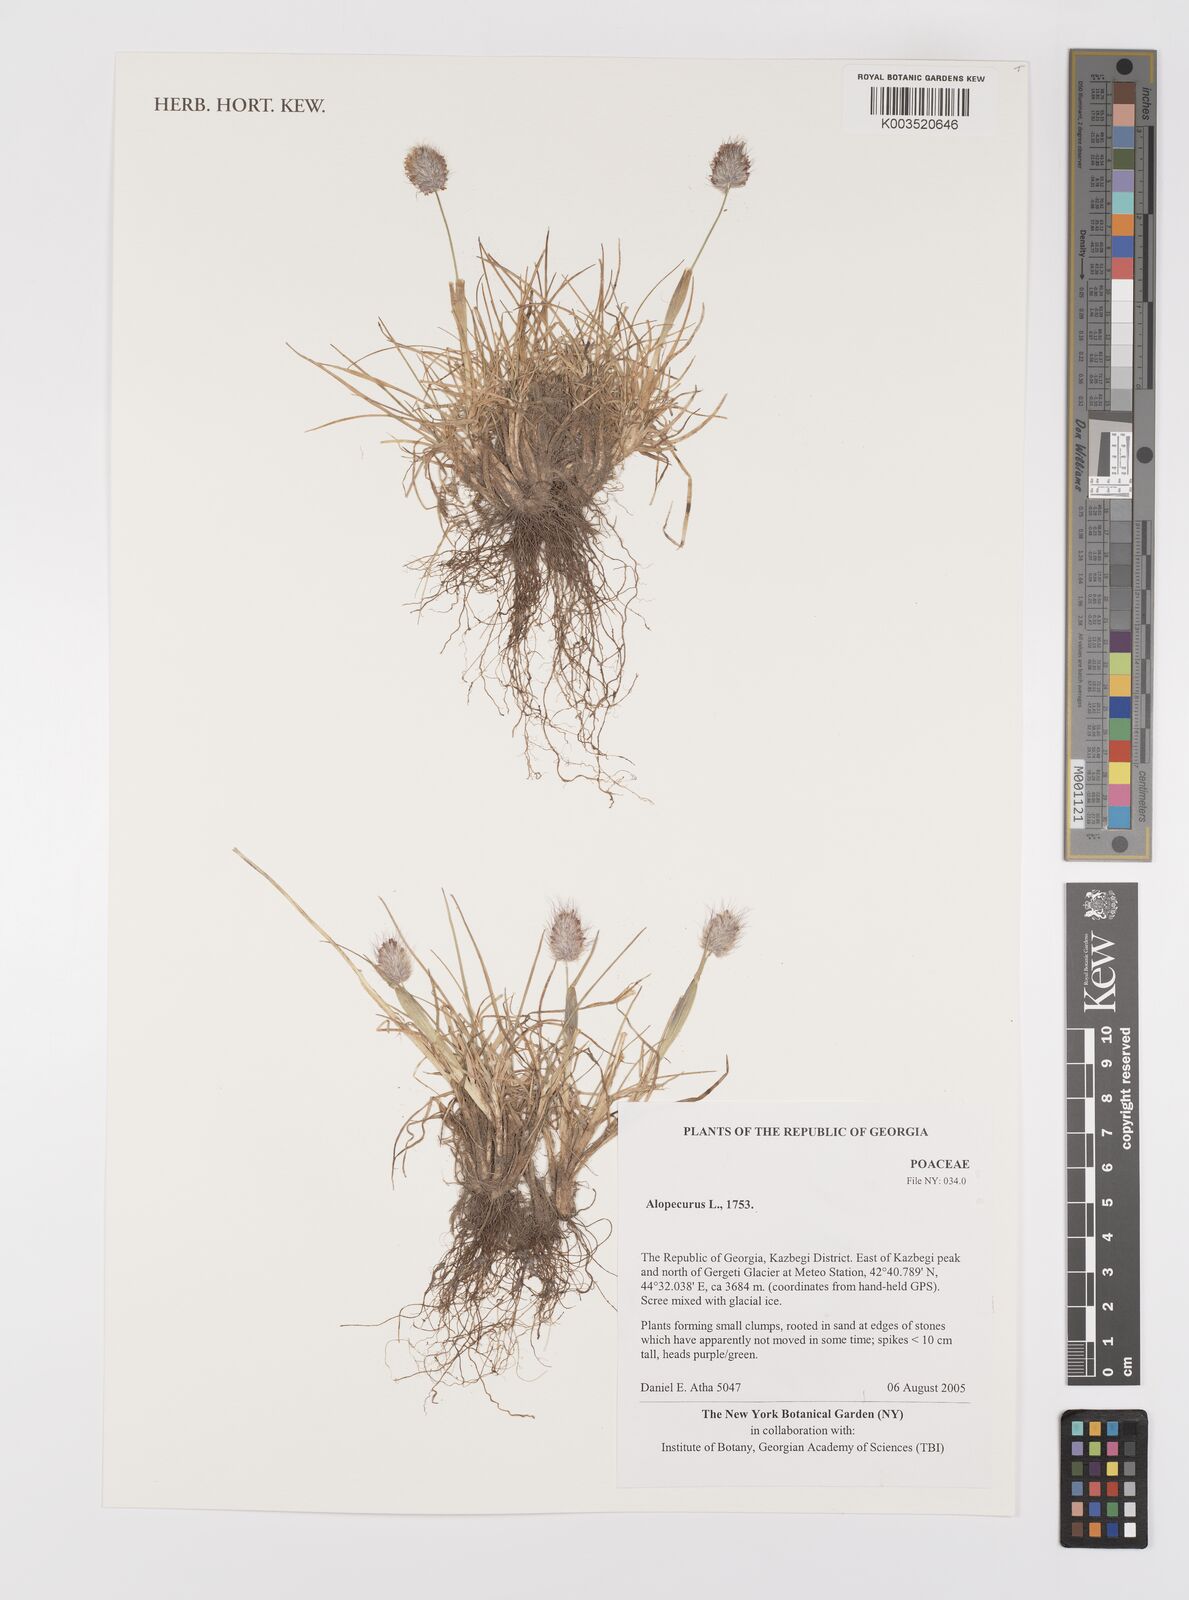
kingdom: Plantae
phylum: Tracheophyta
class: Liliopsida
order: Poales
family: Poaceae
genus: Alopecurus
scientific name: Alopecurus
